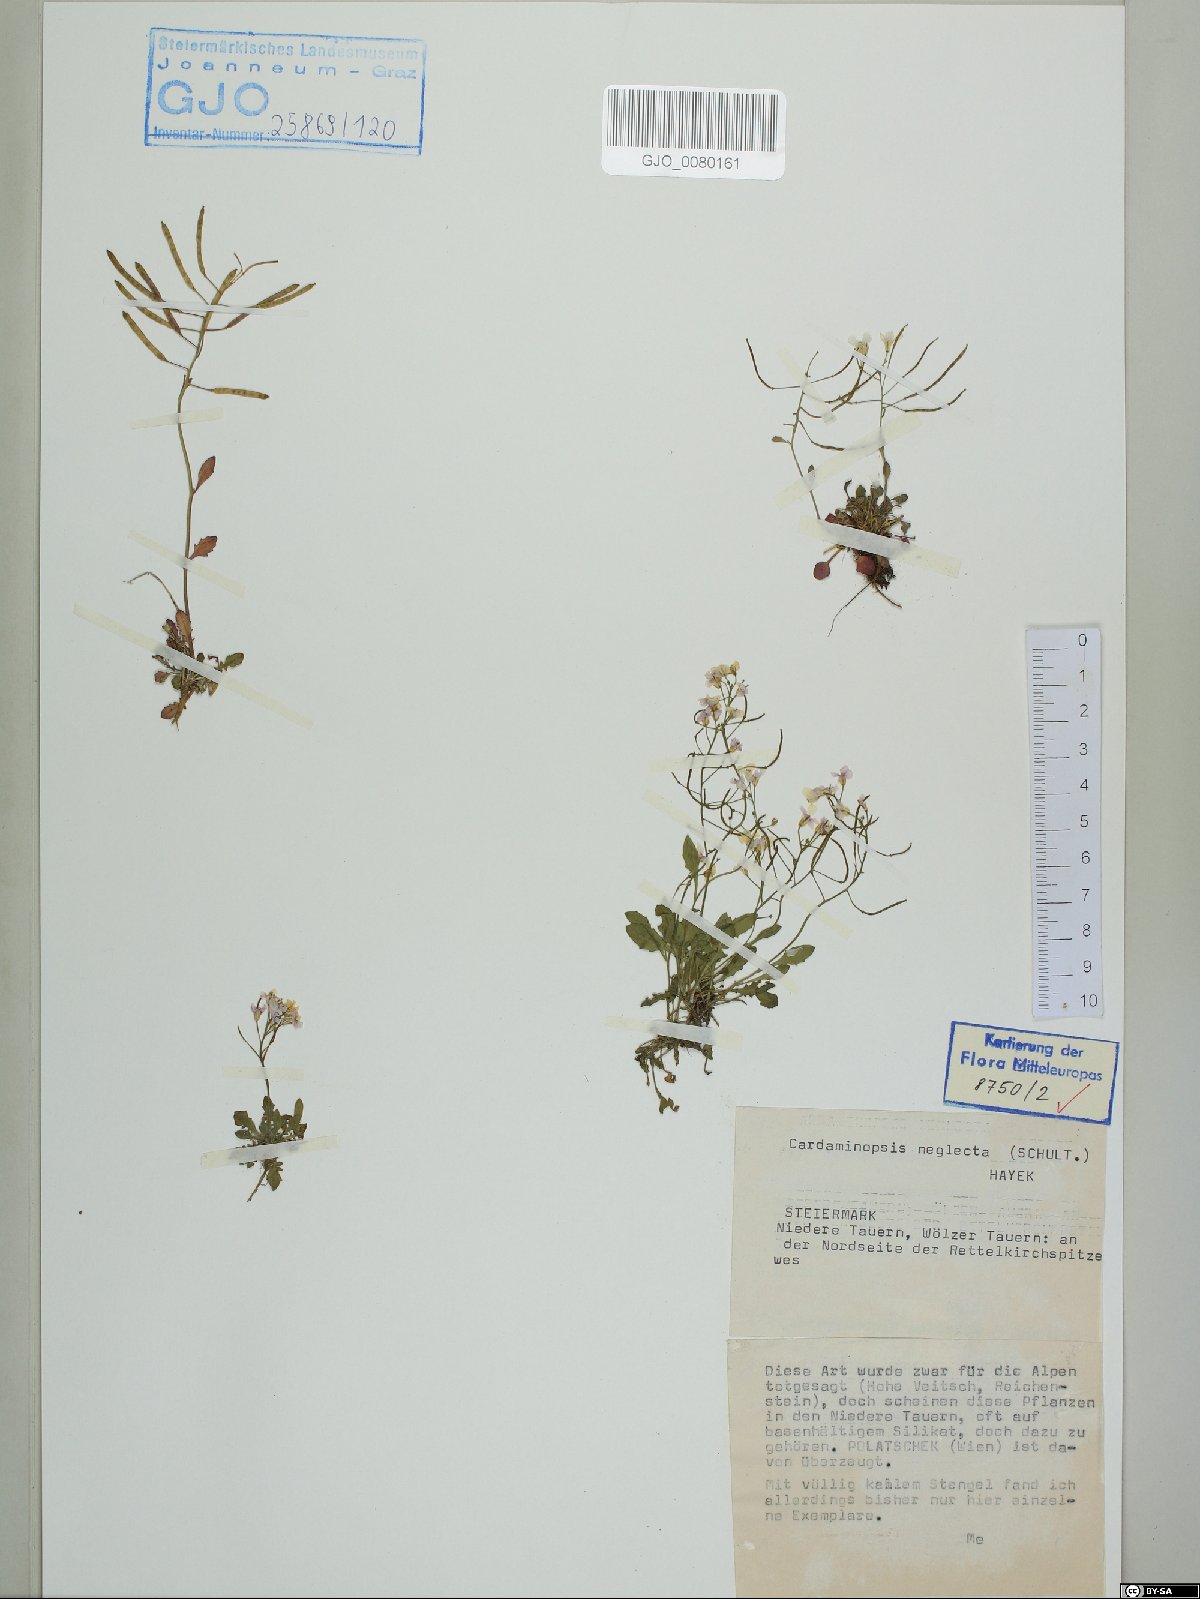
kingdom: Plantae
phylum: Tracheophyta
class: Magnoliopsida
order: Brassicales
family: Brassicaceae
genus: Arabidopsis
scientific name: Arabidopsis neglecta
